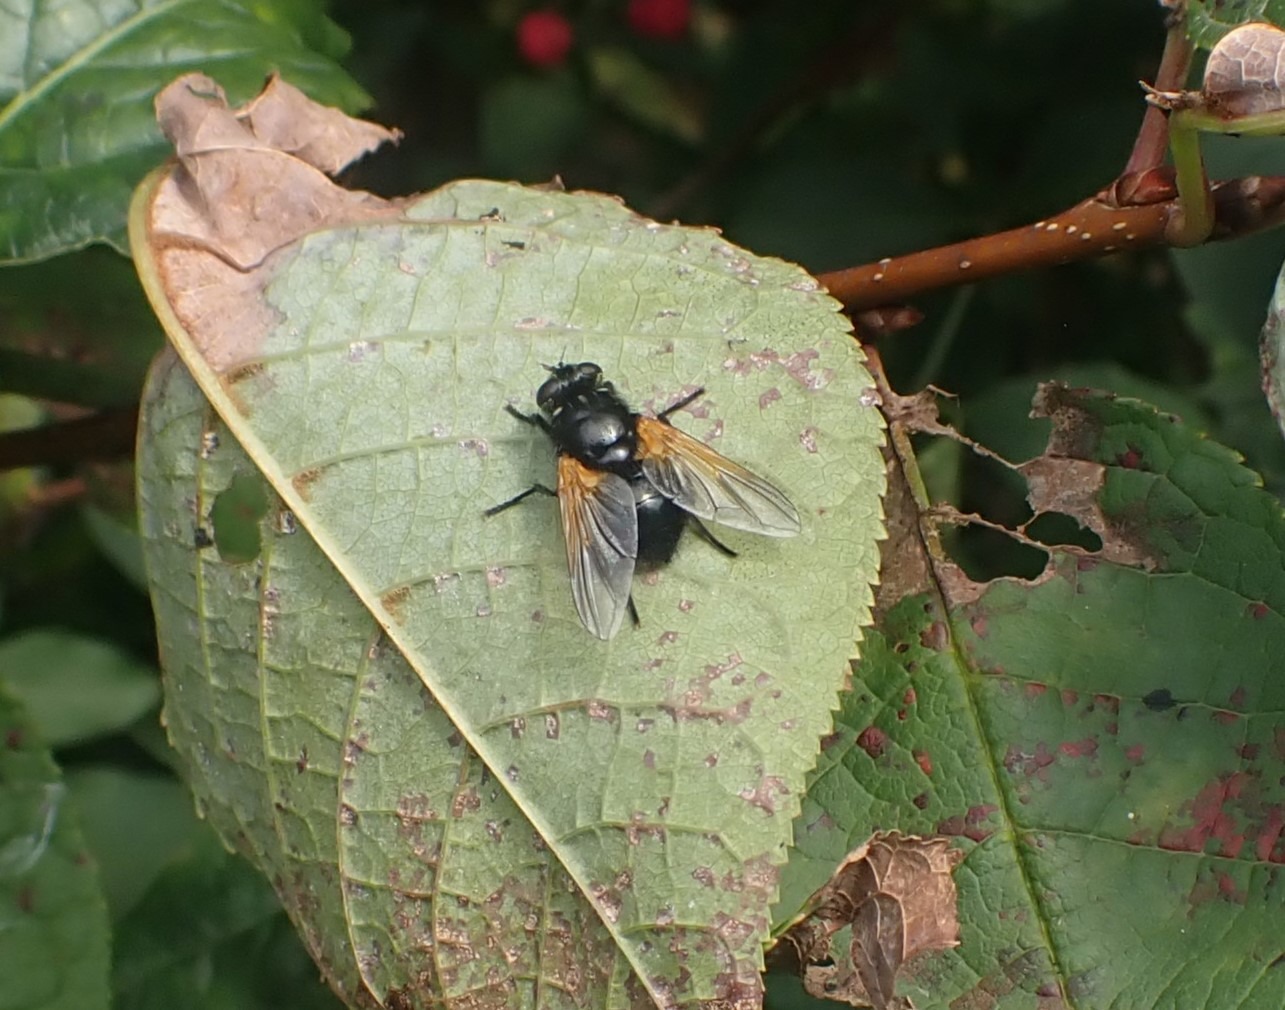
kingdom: Animalia
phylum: Arthropoda
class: Insecta
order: Diptera
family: Muscidae
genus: Mesembrina
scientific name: Mesembrina meridiana
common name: Gulvinget flue
